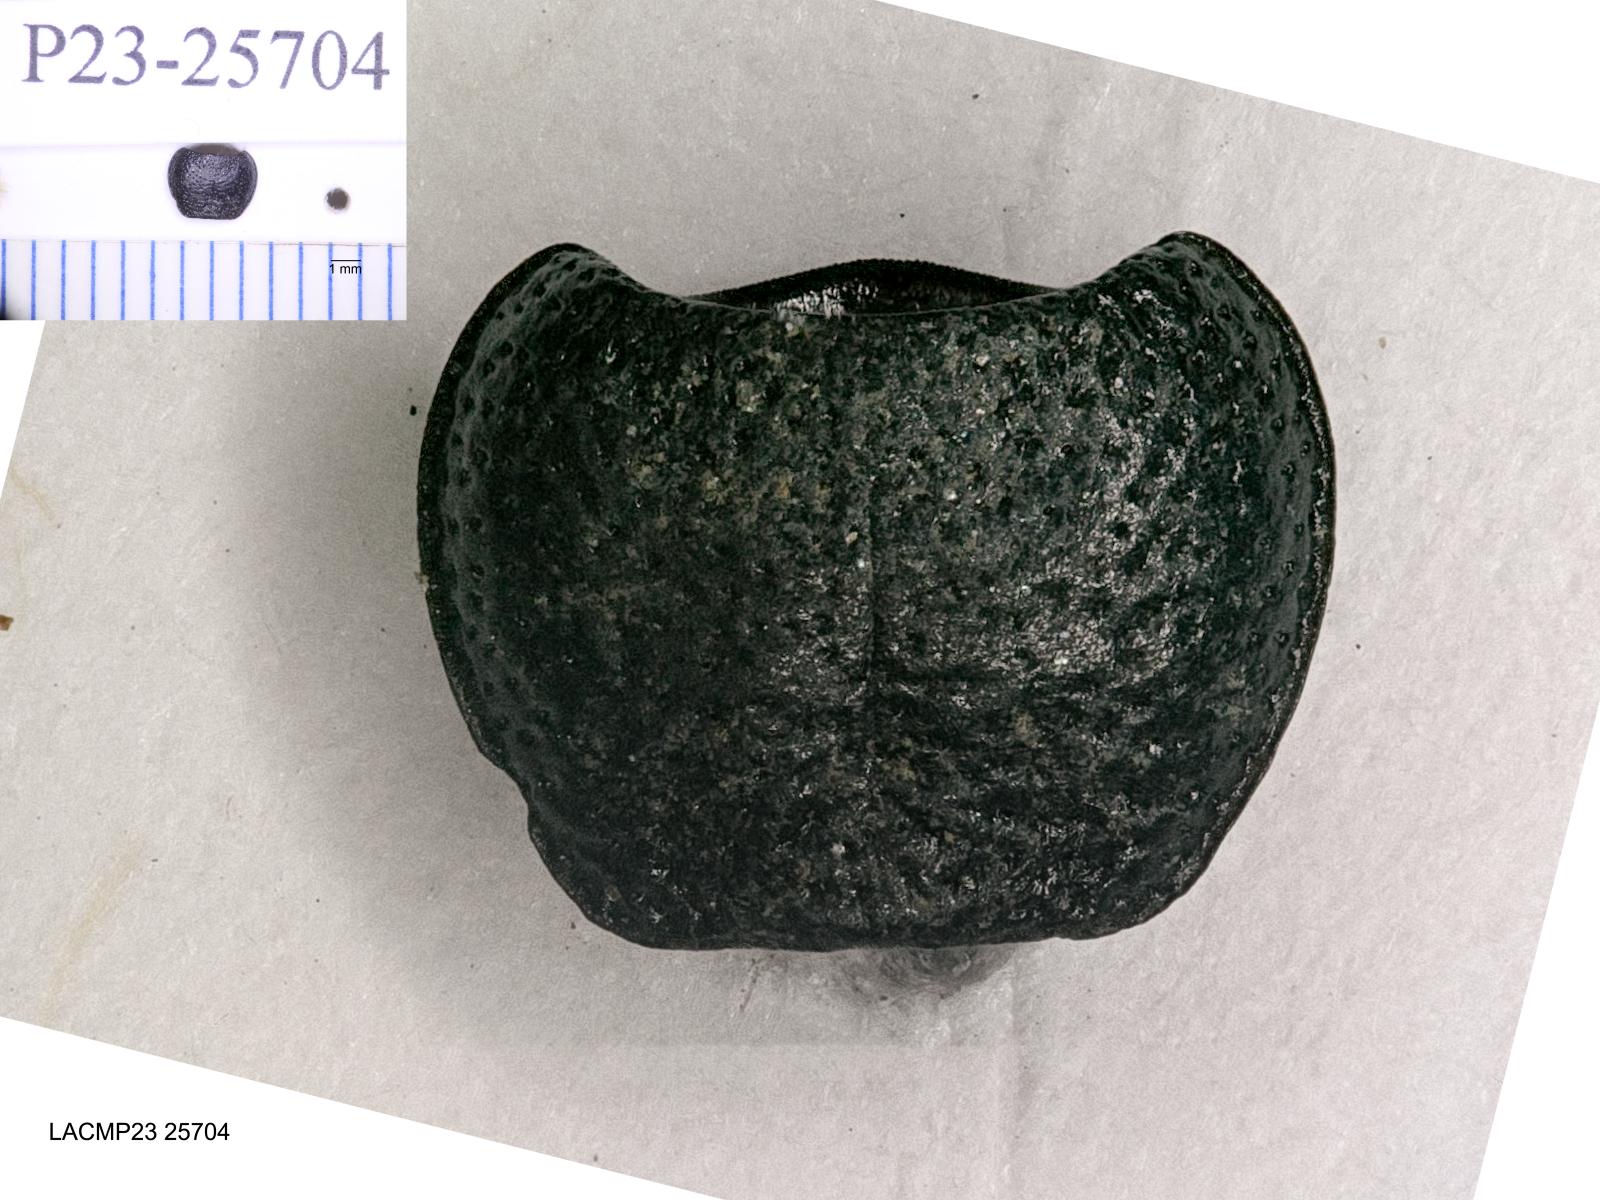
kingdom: Animalia
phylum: Arthropoda
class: Insecta
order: Coleoptera
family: Carabidae
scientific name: Carabidae
